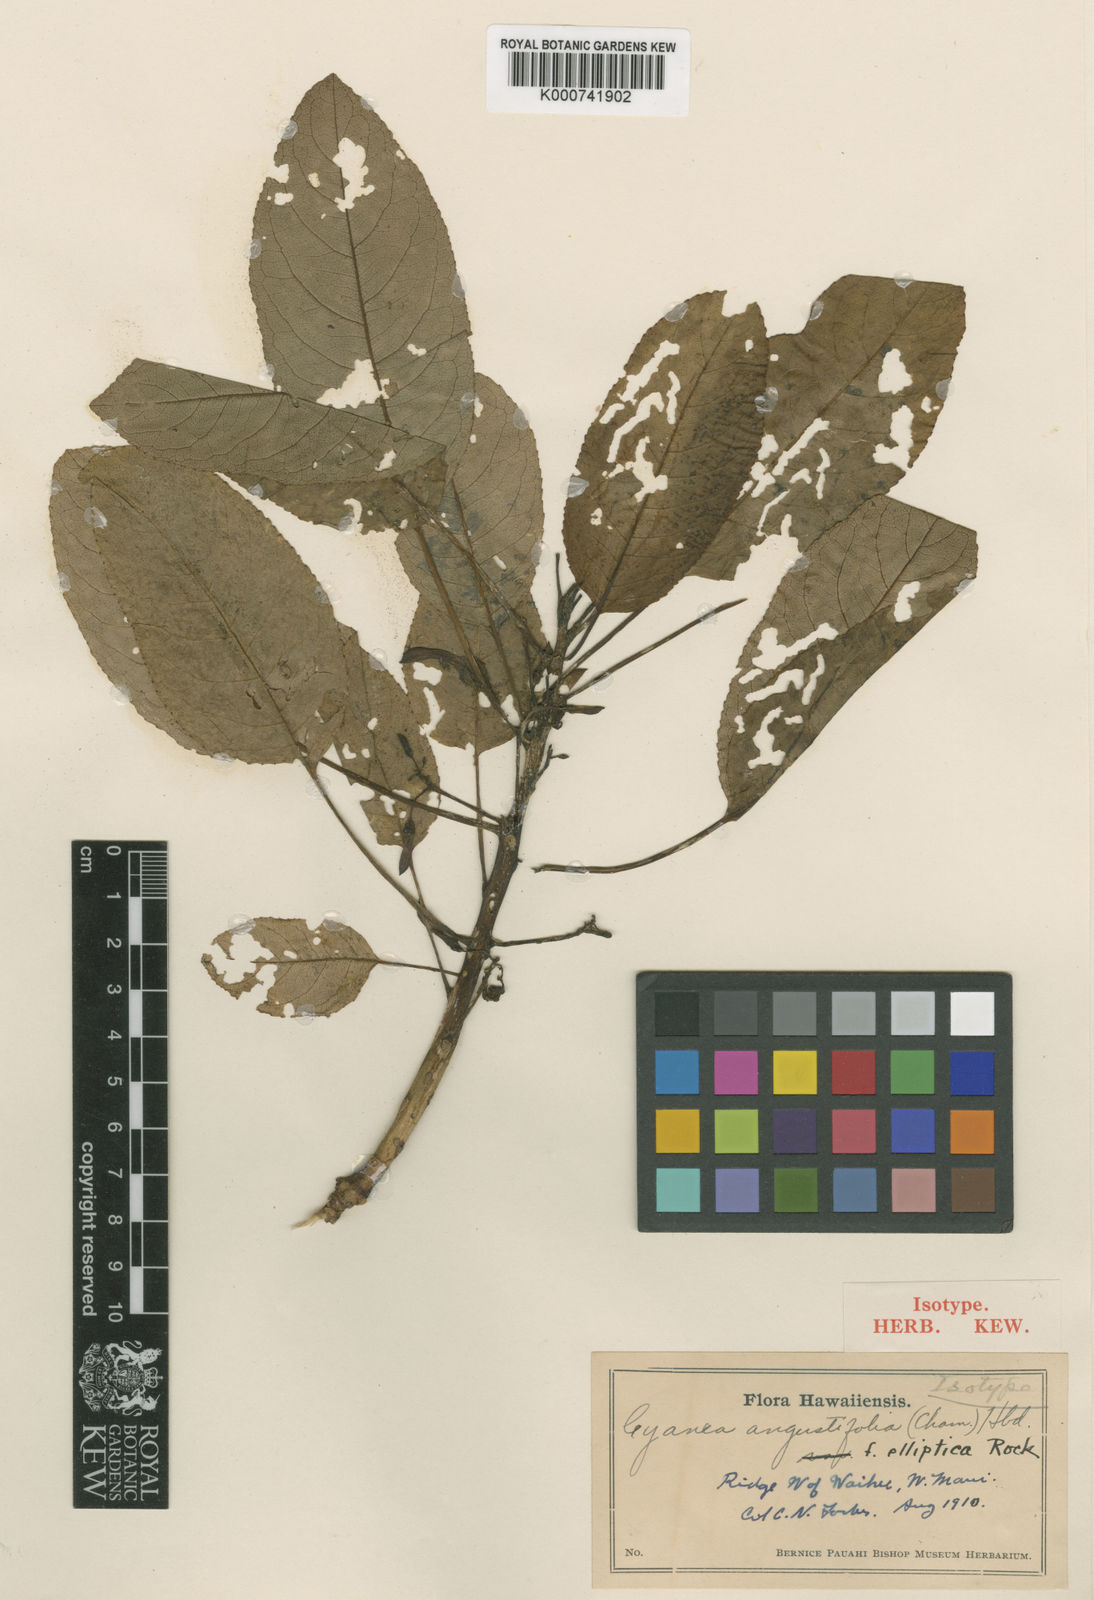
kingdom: Plantae
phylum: Tracheophyta
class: Magnoliopsida
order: Asterales
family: Campanulaceae
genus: Cyanea
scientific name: Cyanea angustifolia
